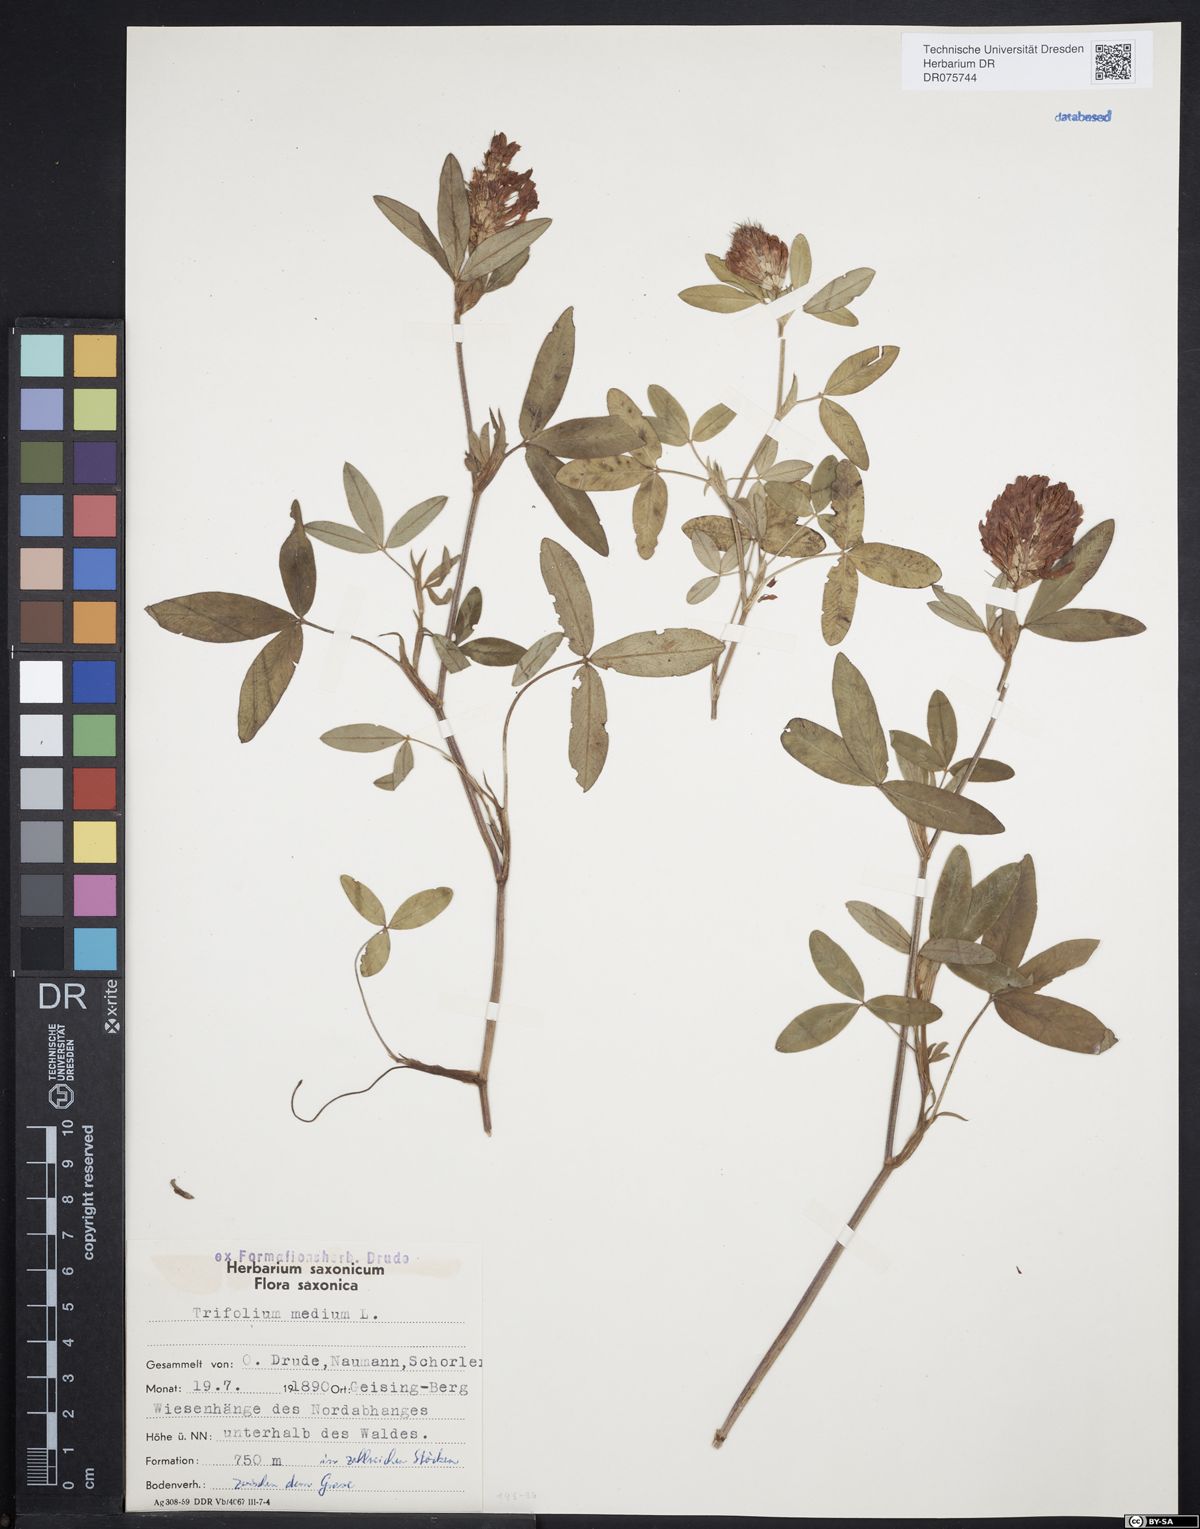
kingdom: Plantae
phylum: Tracheophyta
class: Magnoliopsida
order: Fabales
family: Fabaceae
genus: Trifolium
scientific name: Trifolium medium
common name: Zigzag clover
